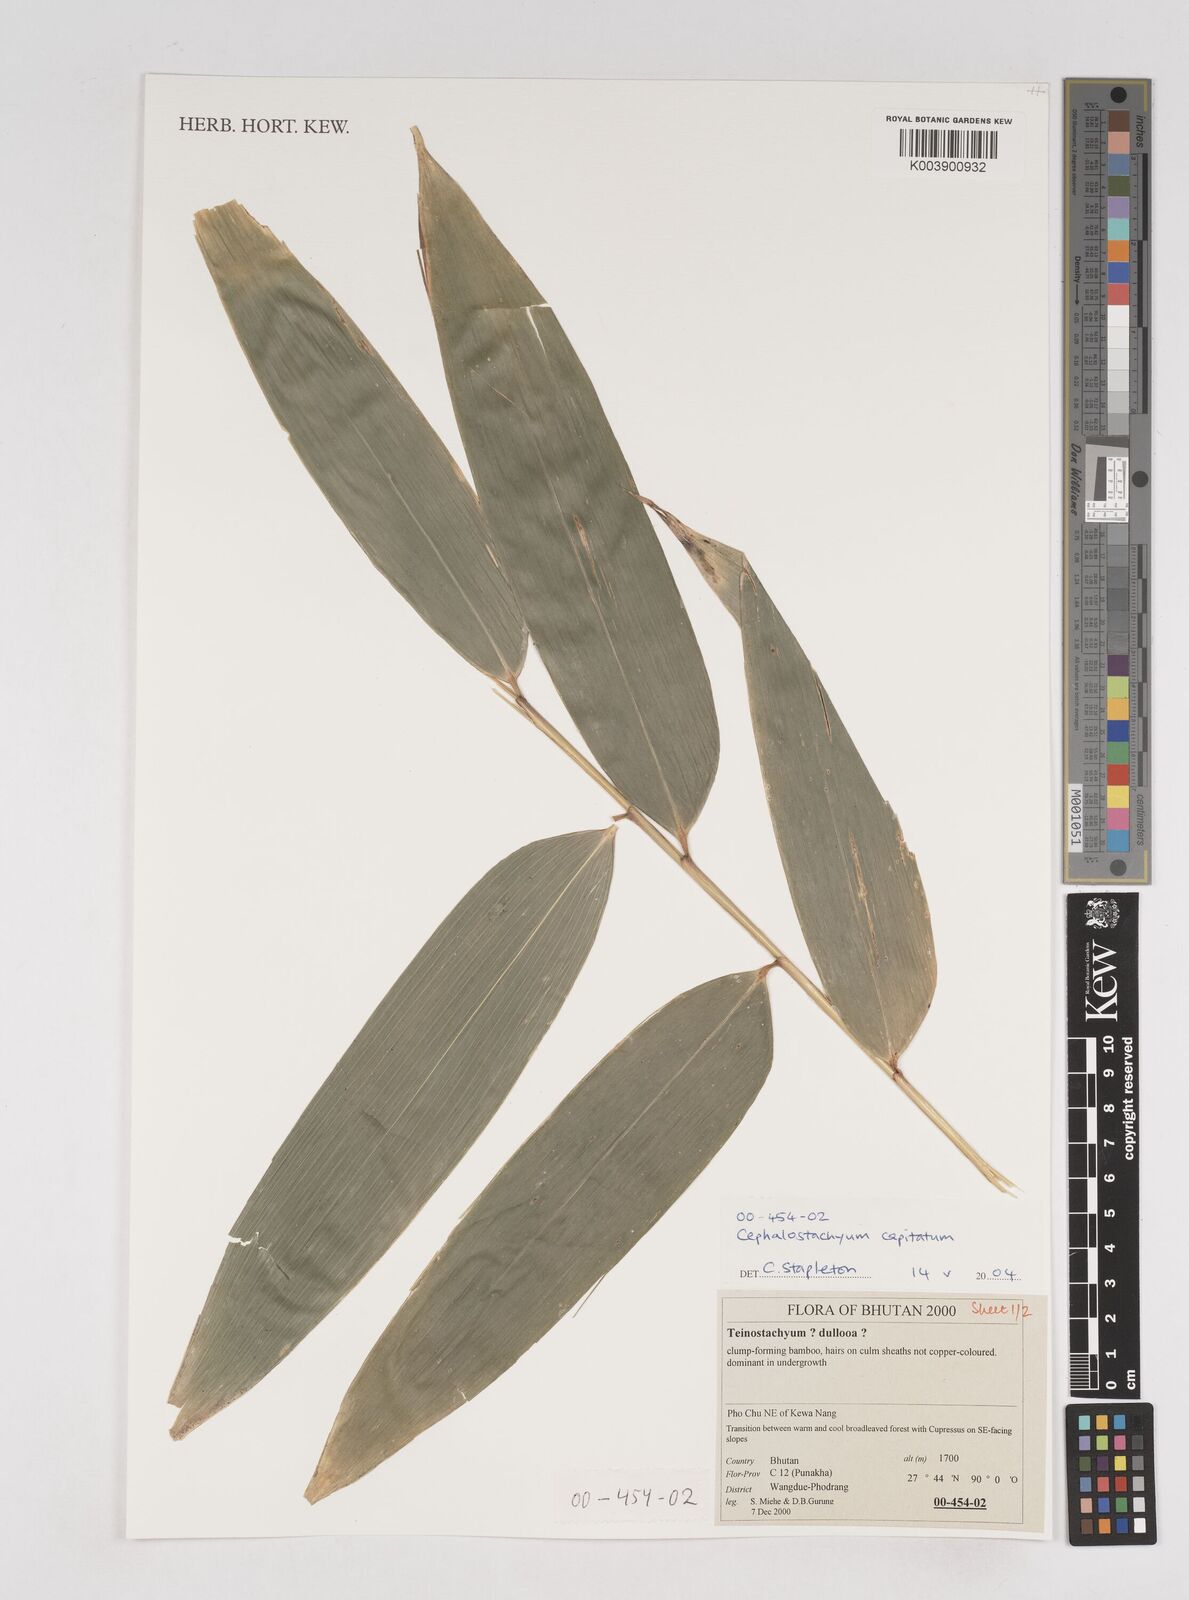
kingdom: Plantae
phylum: Tracheophyta
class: Liliopsida
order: Poales
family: Poaceae
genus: Cephalostachyum
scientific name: Cephalostachyum capitatum
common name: Hollow bamboo
